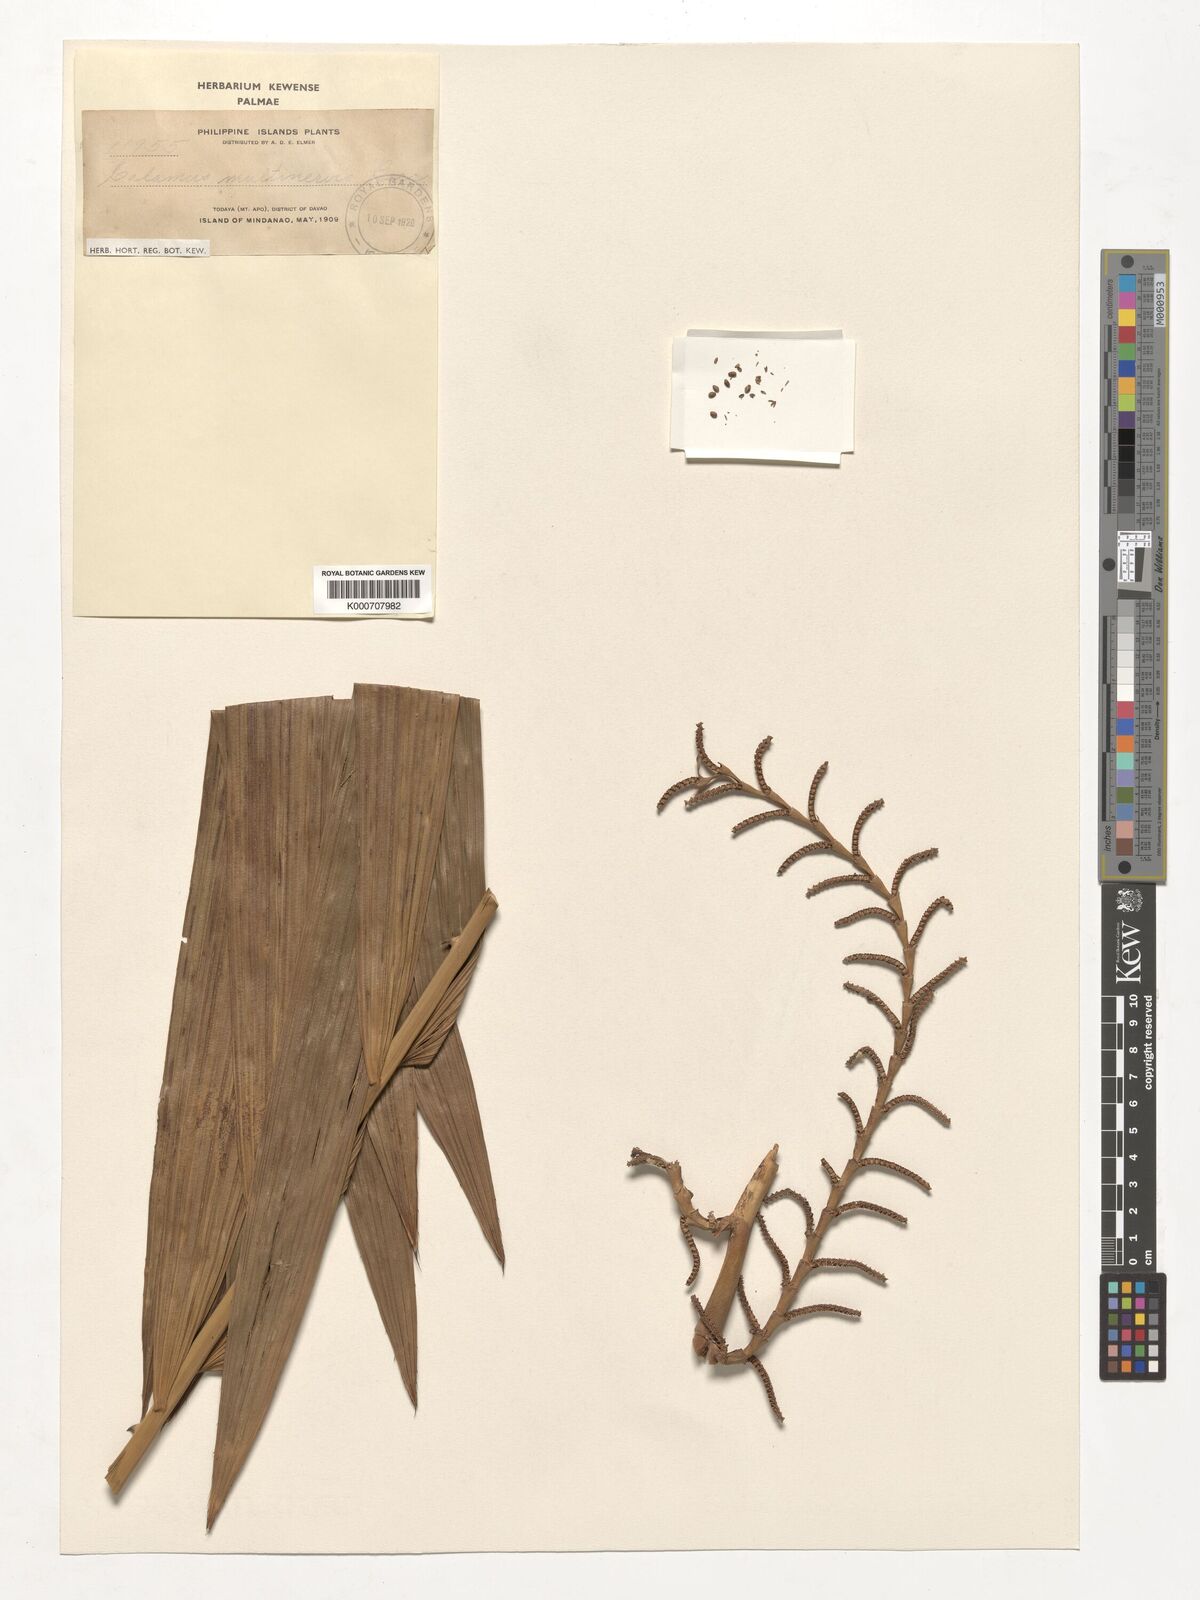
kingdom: Plantae
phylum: Tracheophyta
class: Liliopsida
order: Arecales
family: Arecaceae
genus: Calamus
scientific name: Calamus moseleyanus
